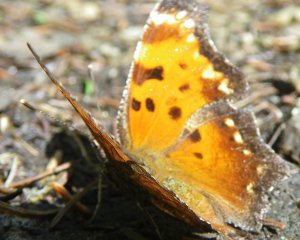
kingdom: Animalia
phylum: Arthropoda
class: Insecta
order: Lepidoptera
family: Nymphalidae
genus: Polygonia
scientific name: Polygonia progne
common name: Gray Comma
